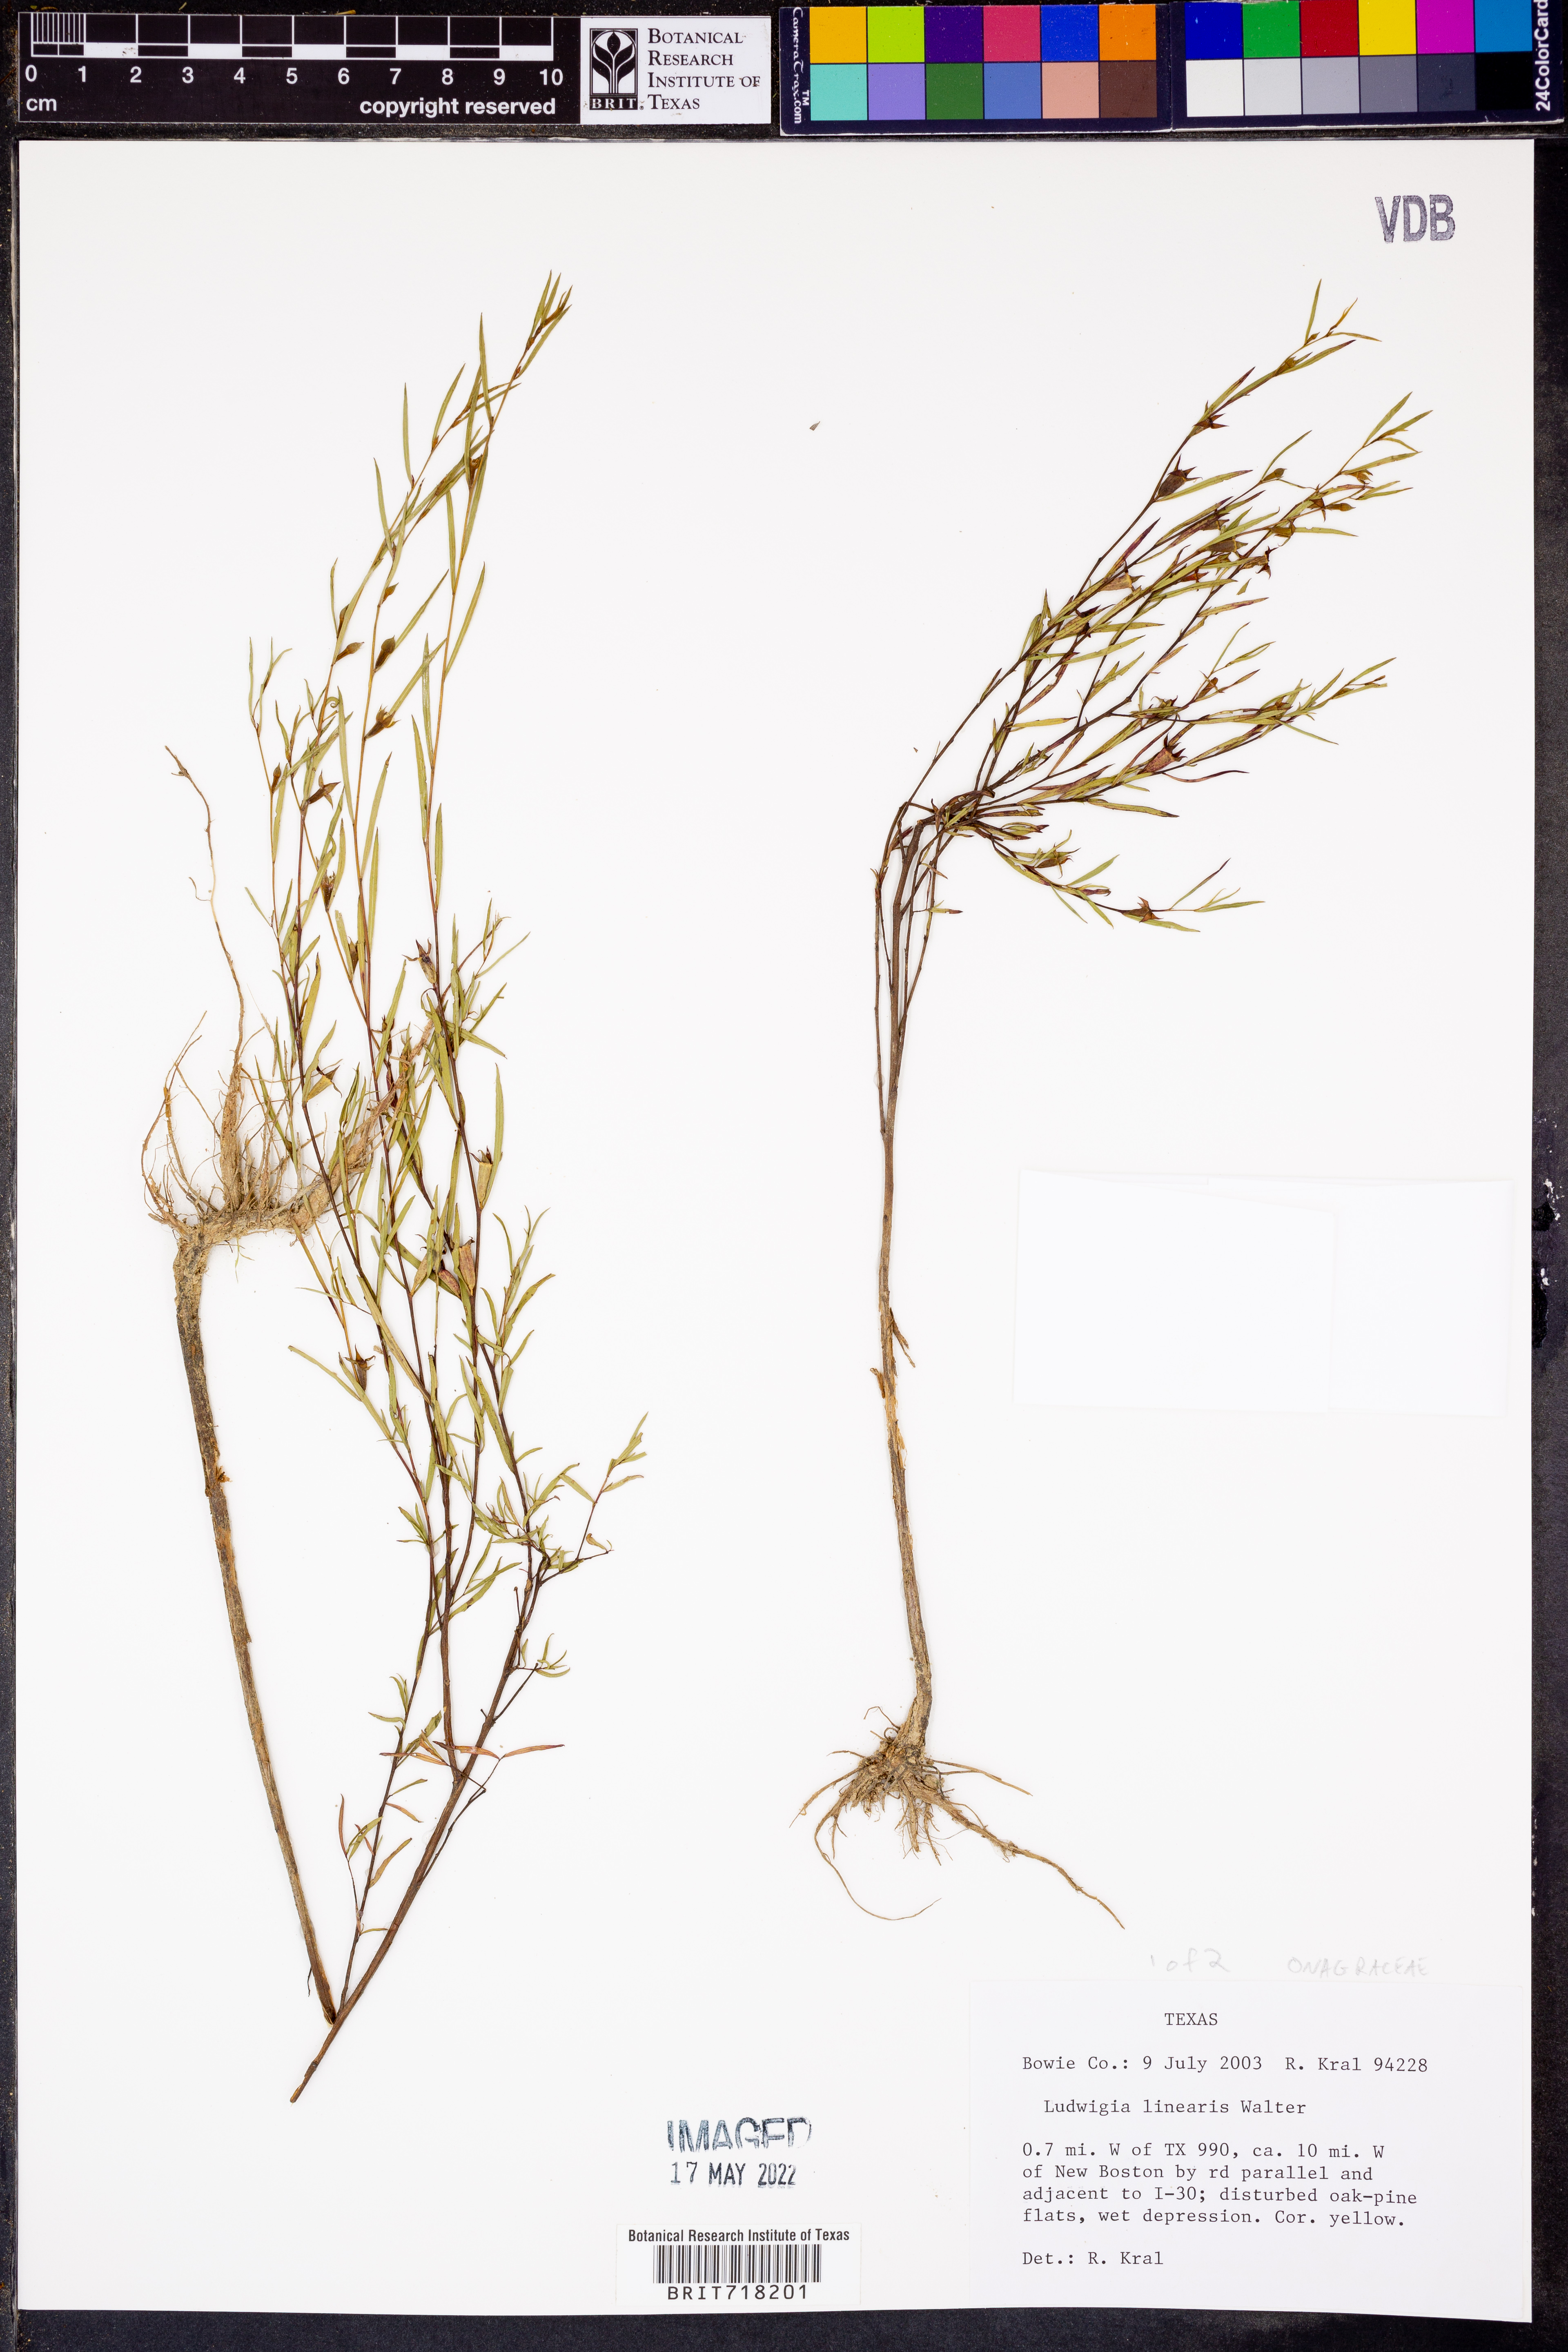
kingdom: Plantae
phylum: Tracheophyta
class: Magnoliopsida
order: Myrtales
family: Onagraceae
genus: Ludwigia
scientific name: Ludwigia linearis
